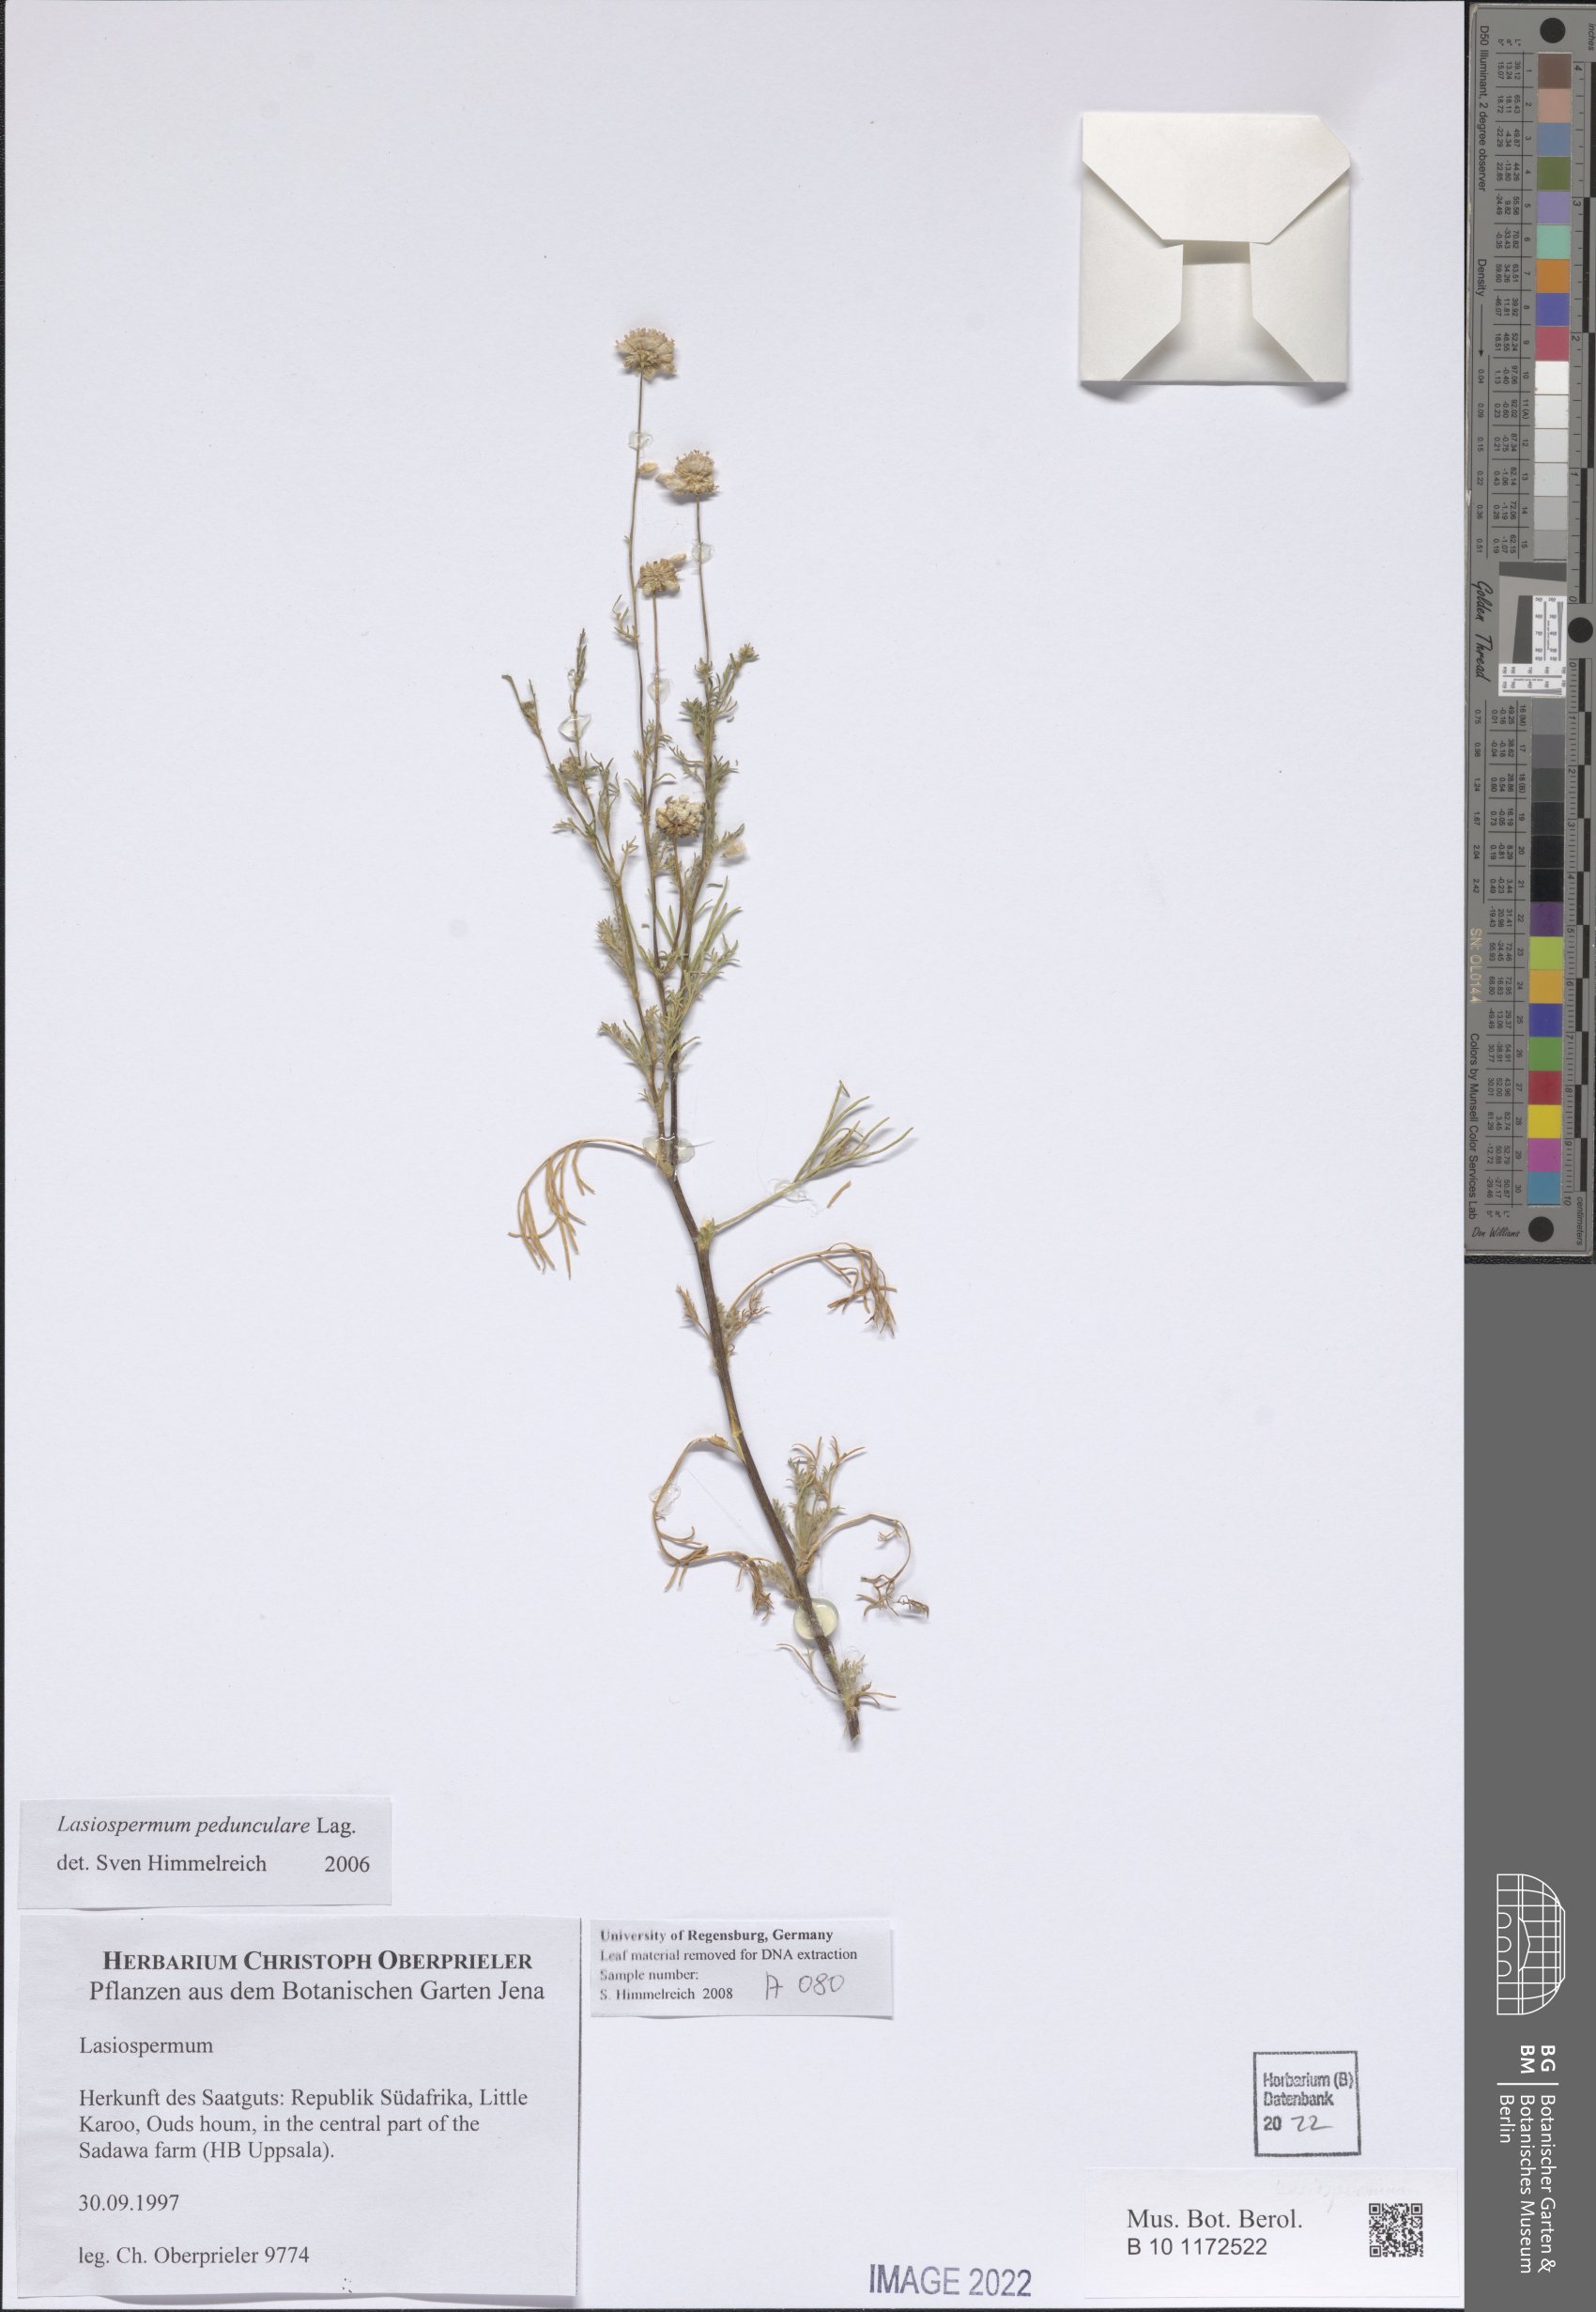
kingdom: Plantae
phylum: Tracheophyta
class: Magnoliopsida
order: Asterales
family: Asteraceae
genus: Lasiospermum
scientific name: Lasiospermum pedunculare
